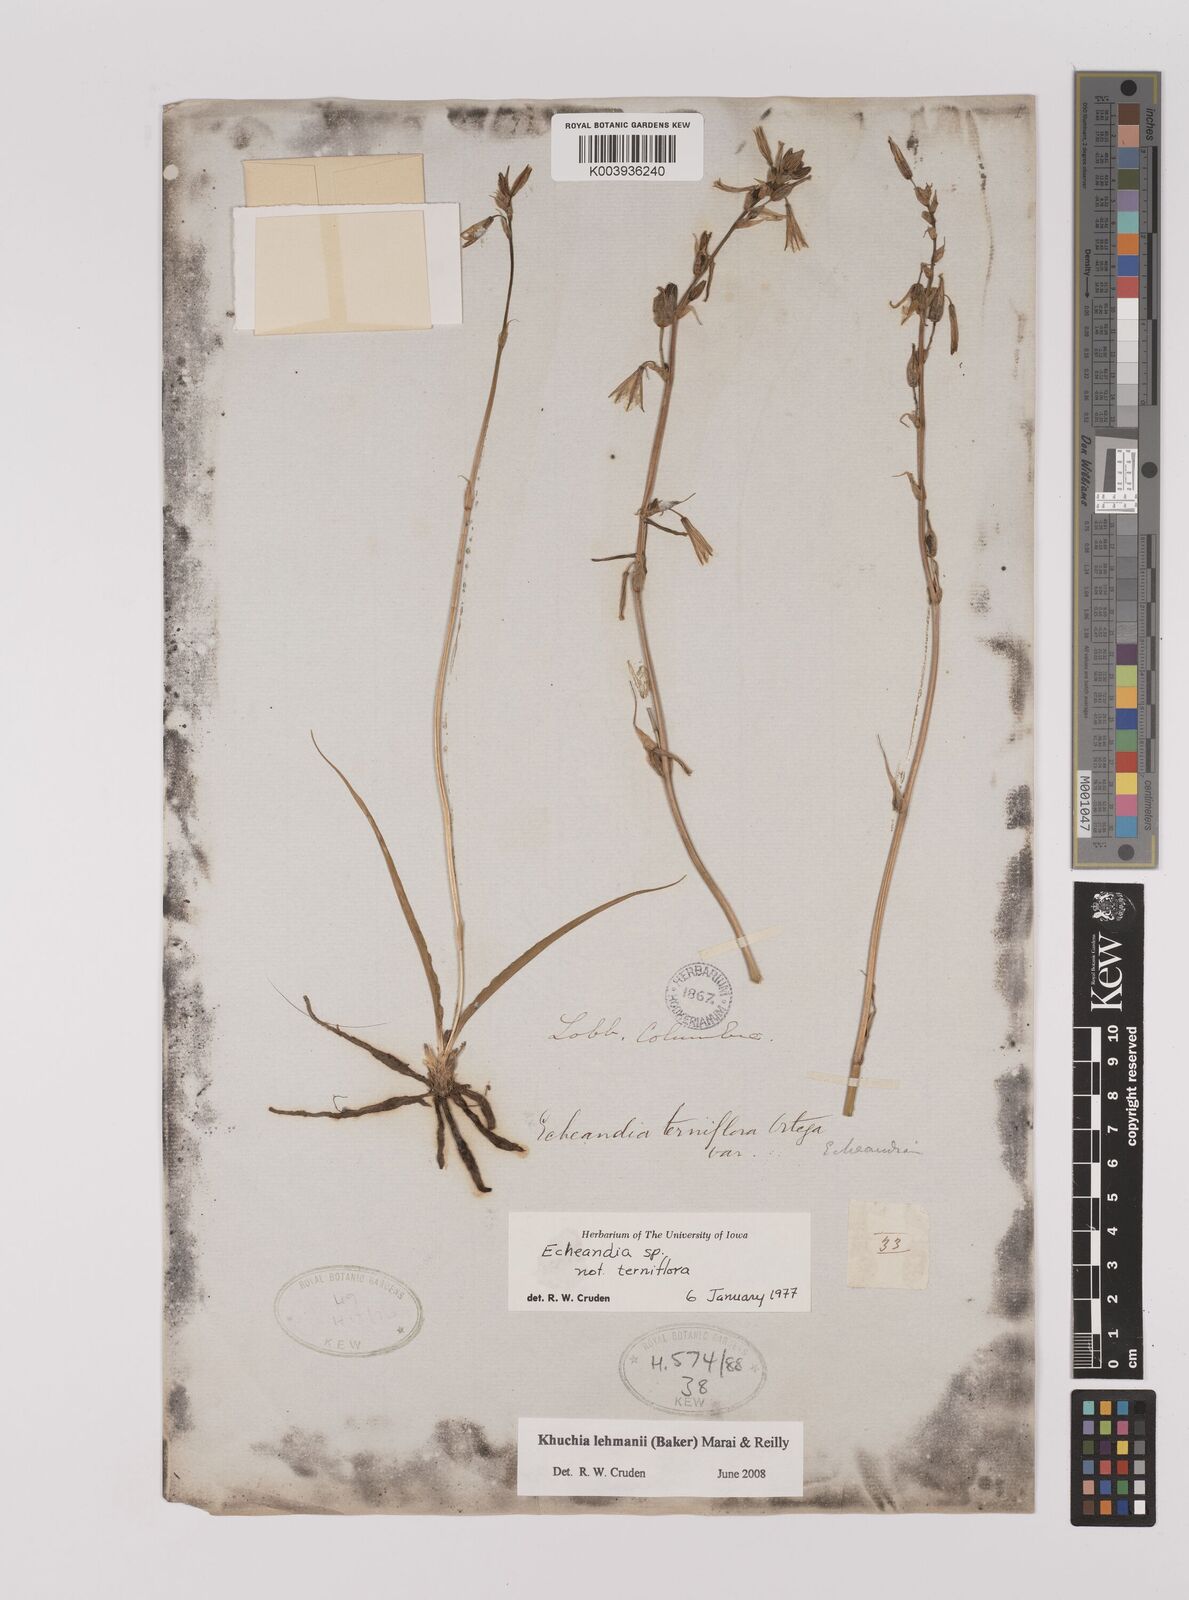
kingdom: Plantae
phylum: Tracheophyta
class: Liliopsida
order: Asparagales
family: Asparagaceae
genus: Echeandia
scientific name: Echeandia
